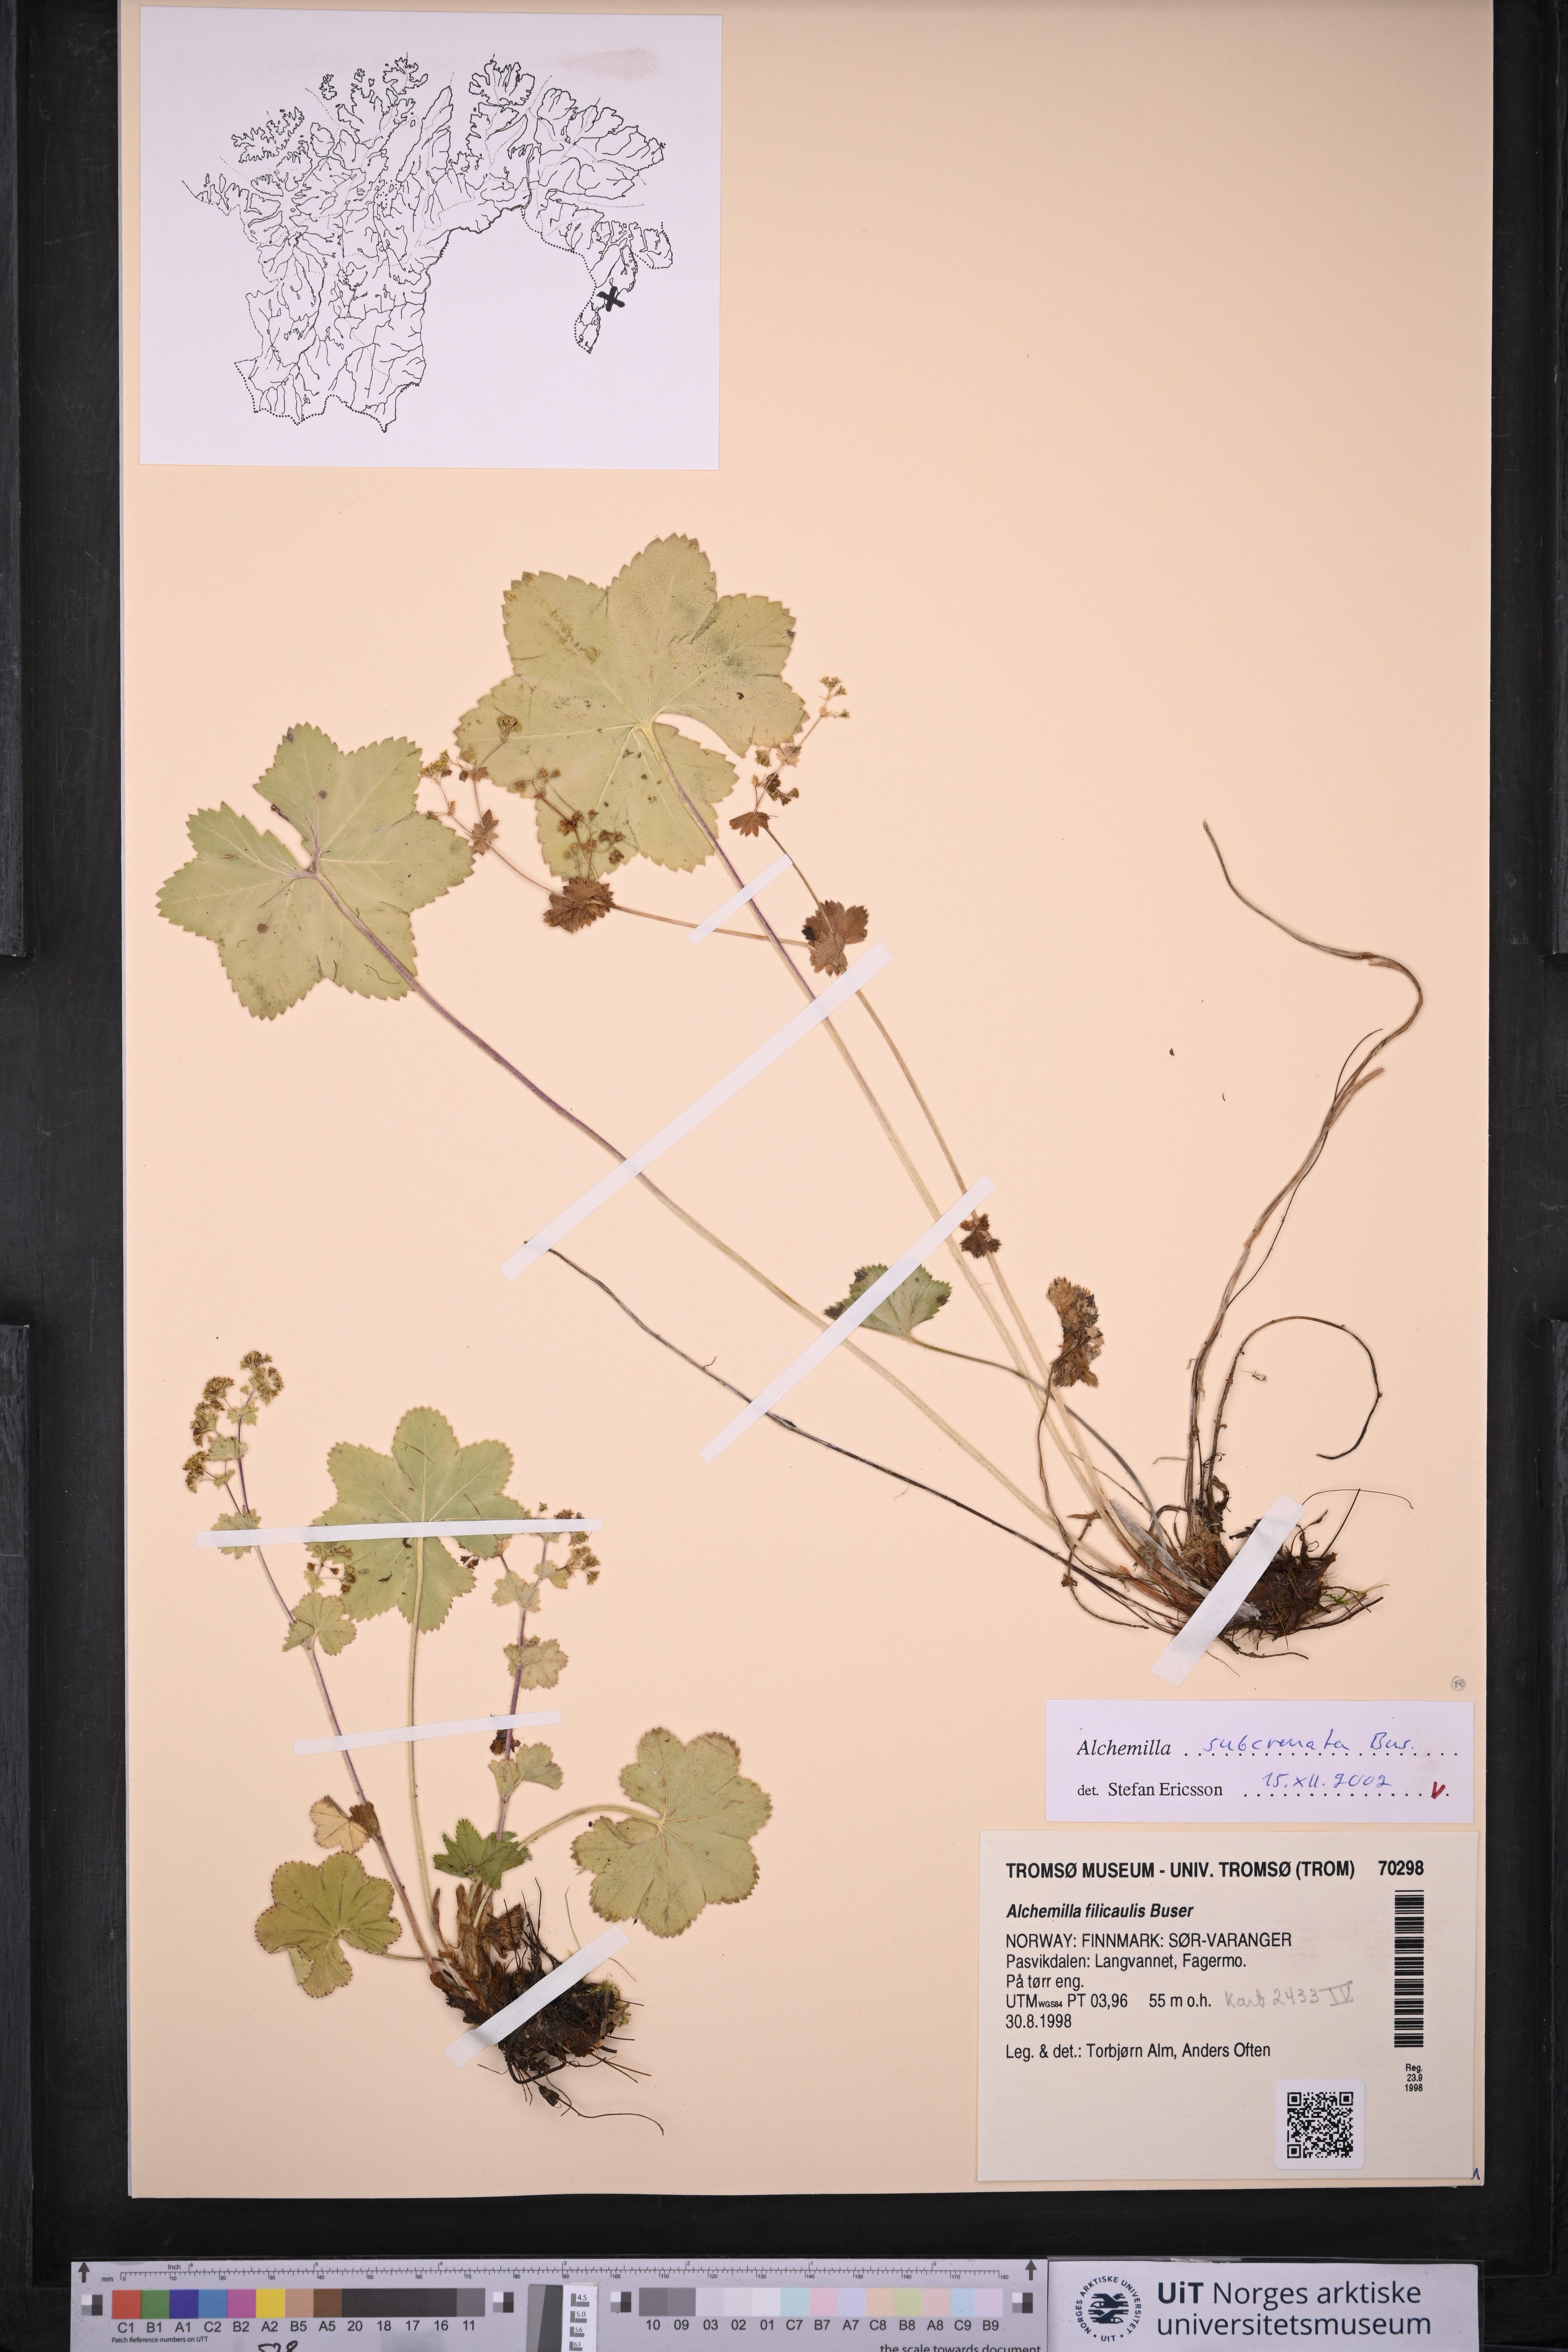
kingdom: Plantae
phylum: Tracheophyta
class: Magnoliopsida
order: Rosales
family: Rosaceae
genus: Alchemilla
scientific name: Alchemilla subcrenata
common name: Broadtooth lady's mantle
